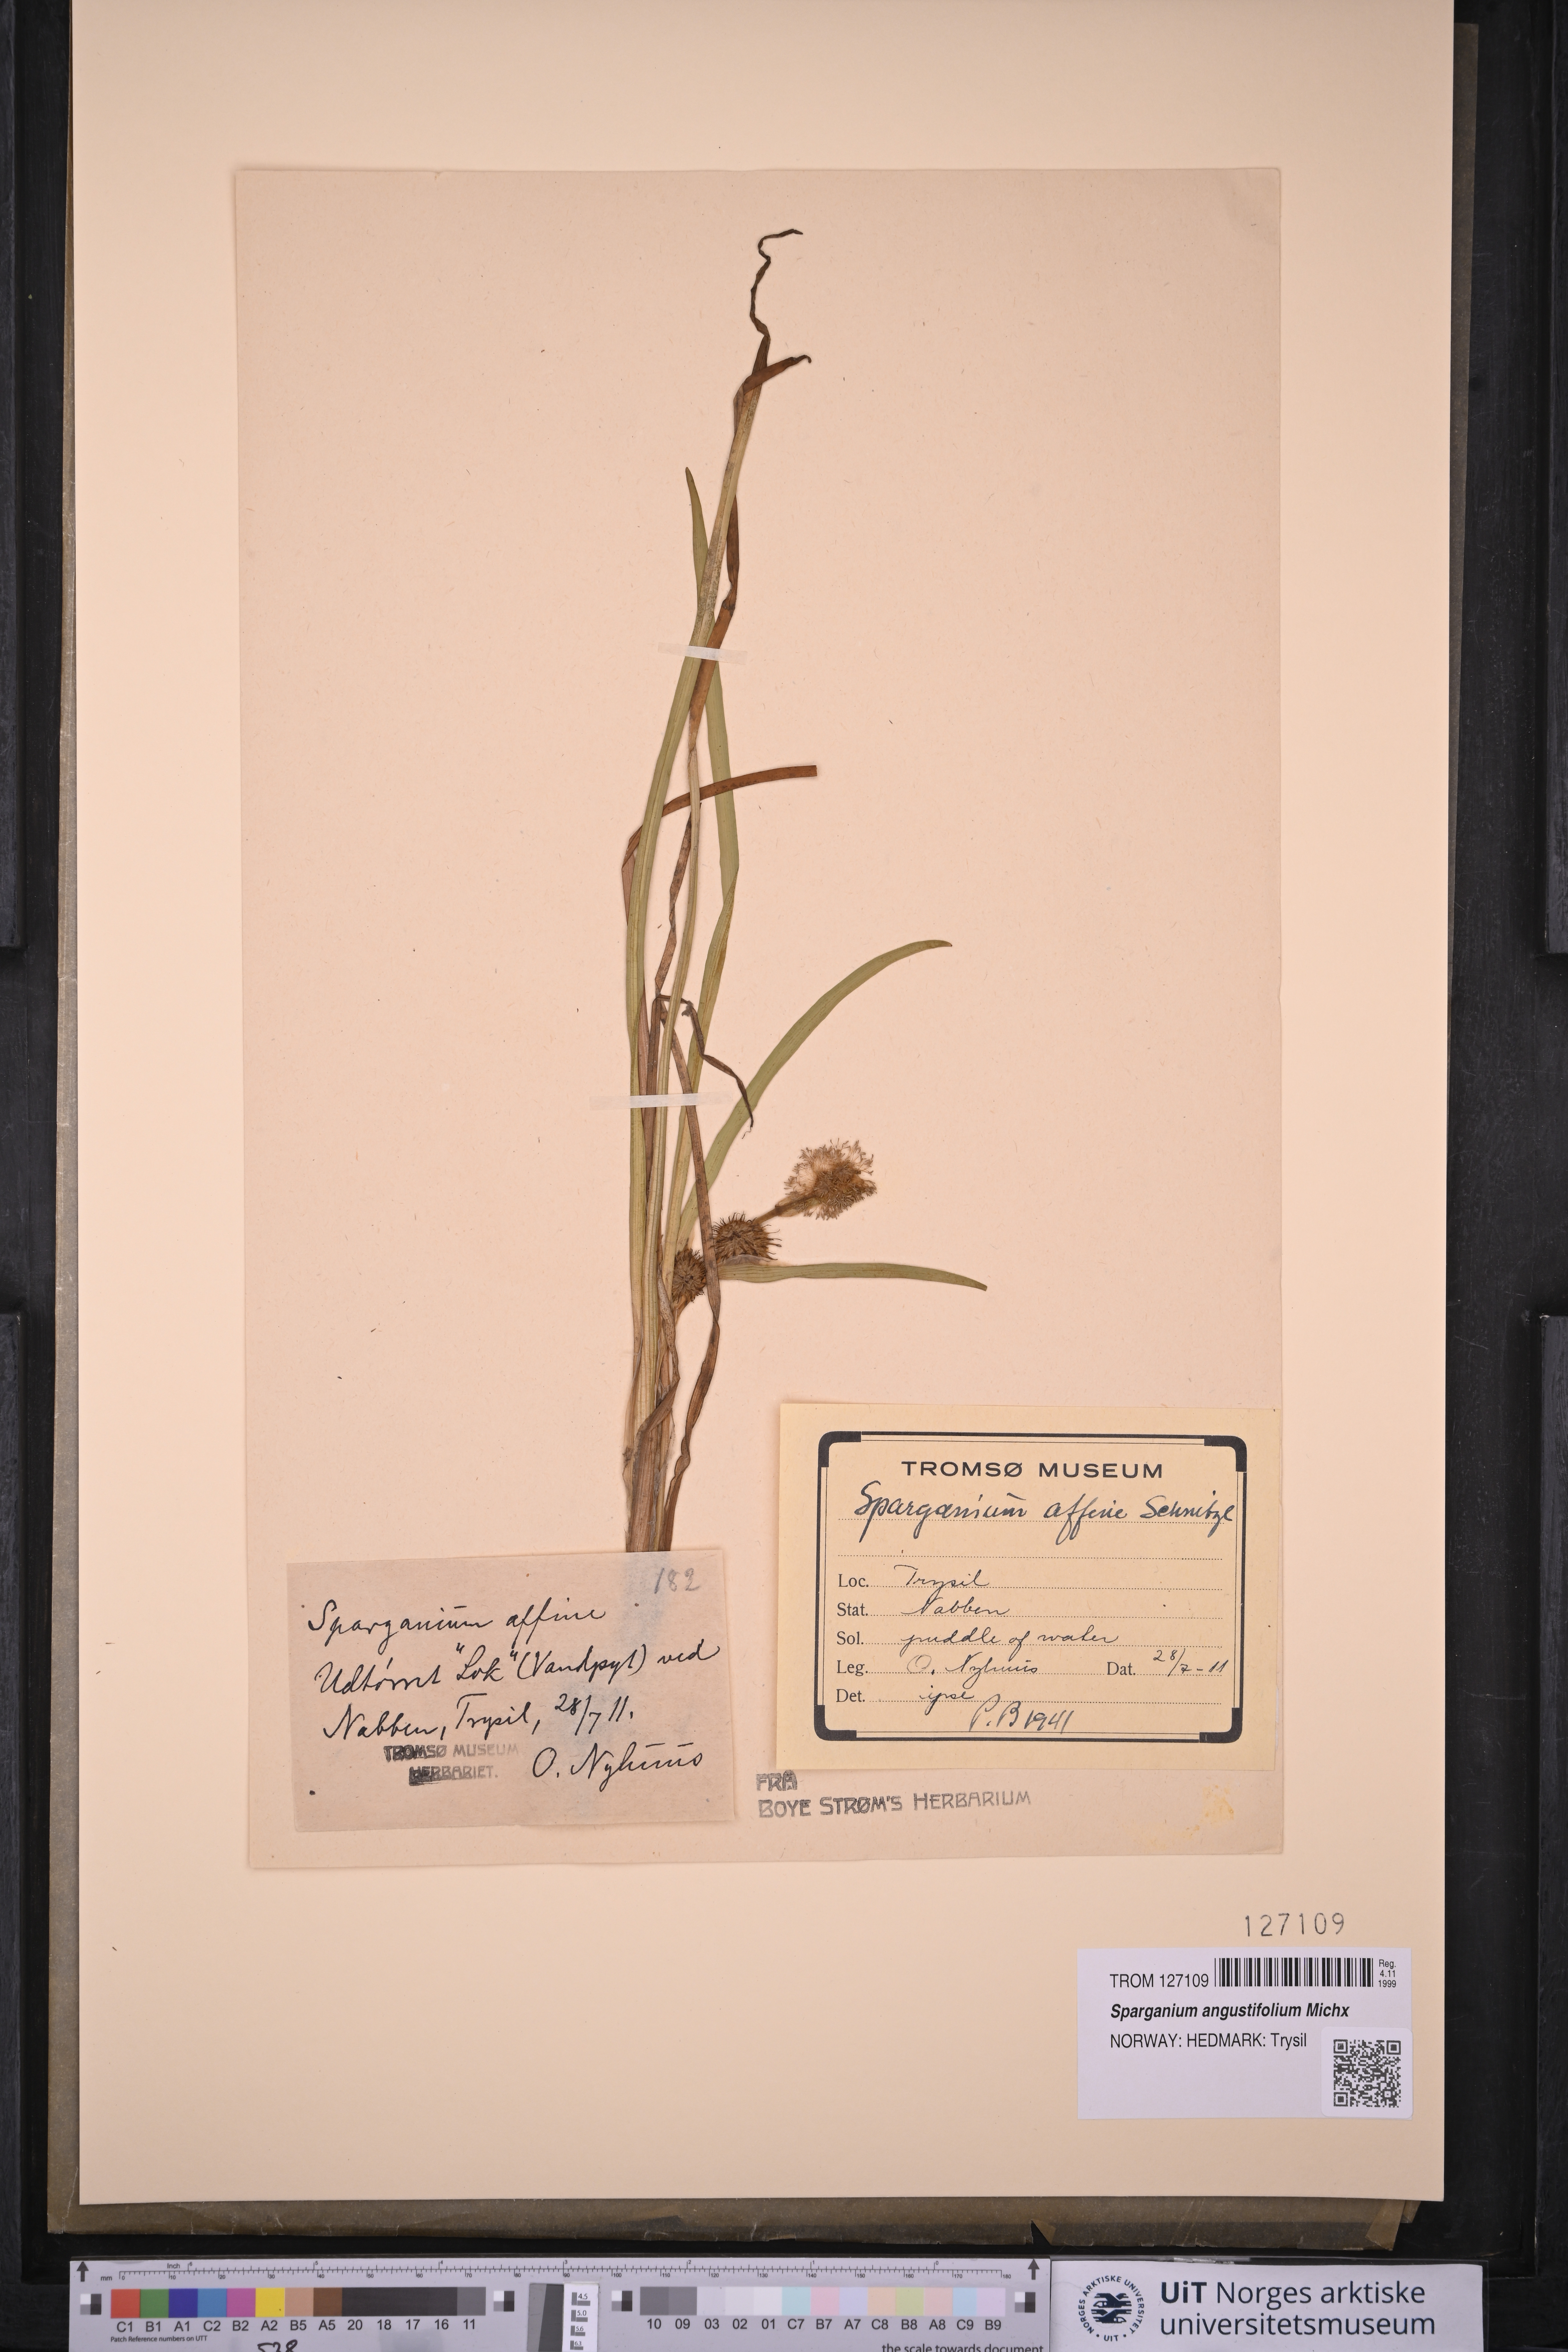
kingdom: Plantae
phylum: Tracheophyta
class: Liliopsida
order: Poales
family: Typhaceae
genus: Sparganium
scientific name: Sparganium angustifolium
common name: Floating bur-reed
